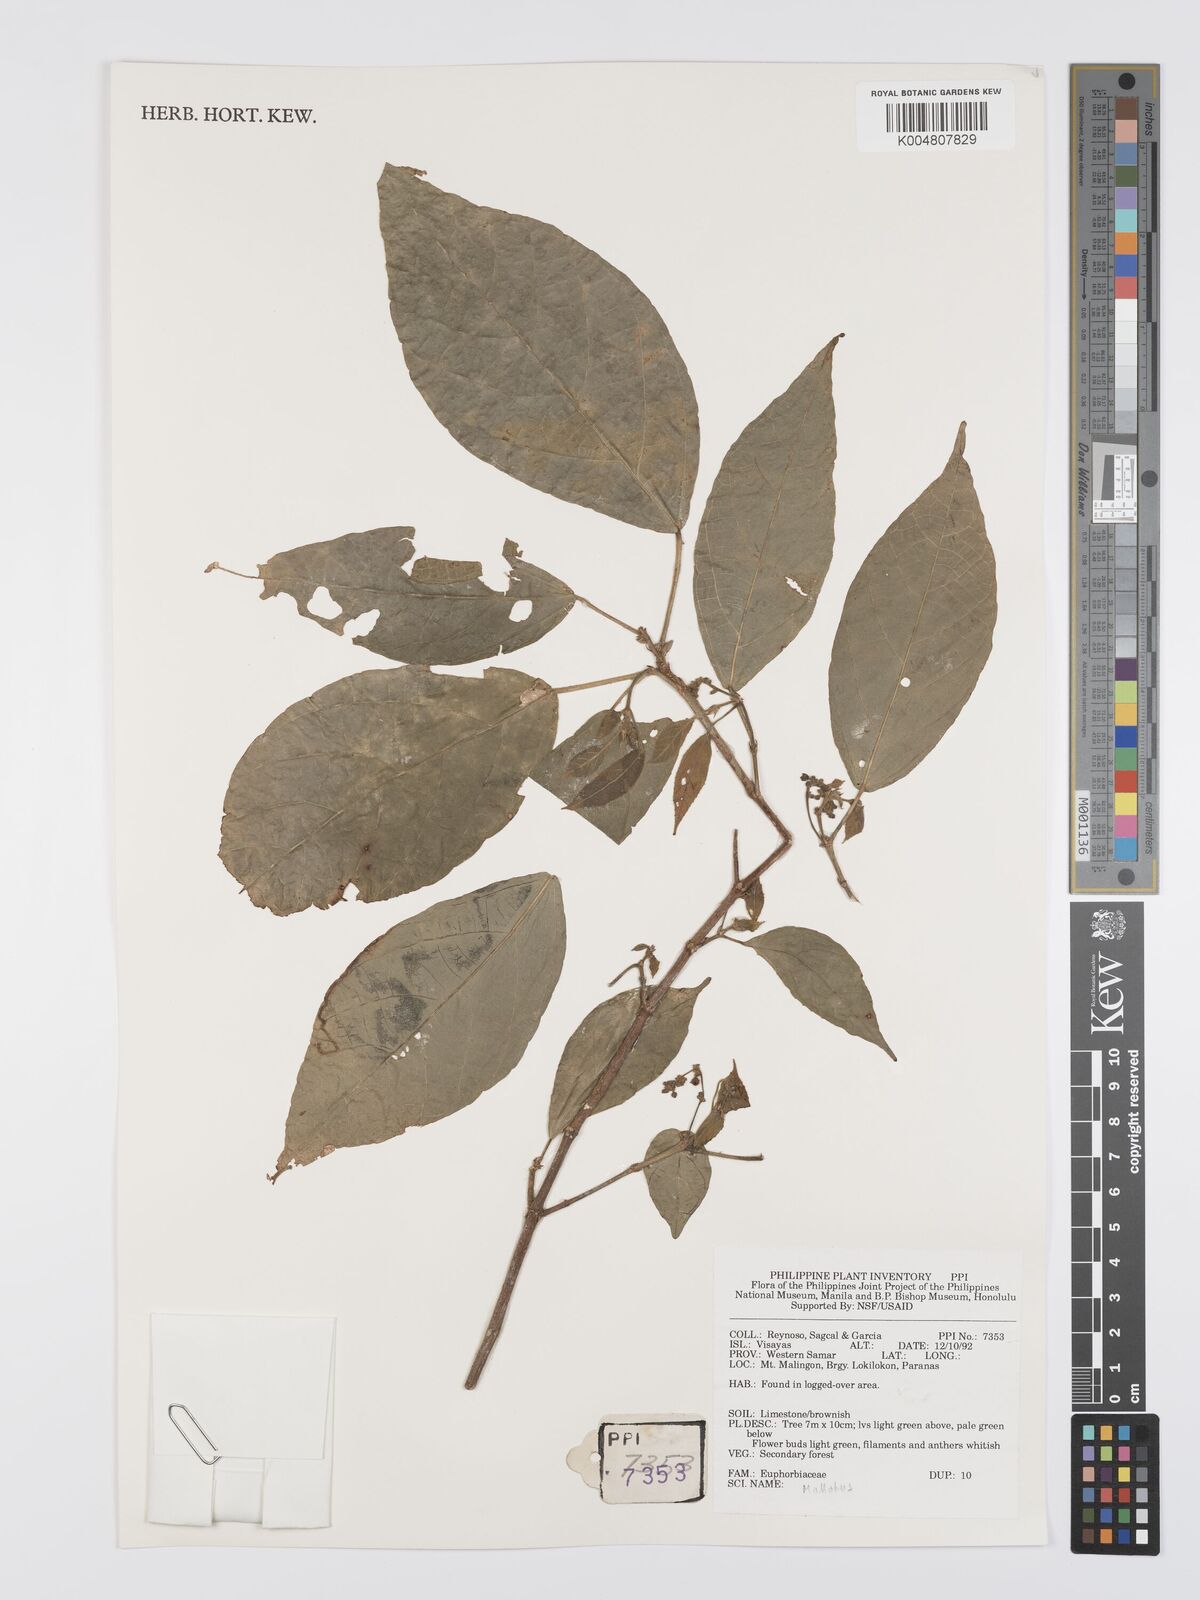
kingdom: Plantae
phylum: Tracheophyta
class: Magnoliopsida
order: Malpighiales
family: Euphorbiaceae
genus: Mallotus
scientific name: Mallotus
